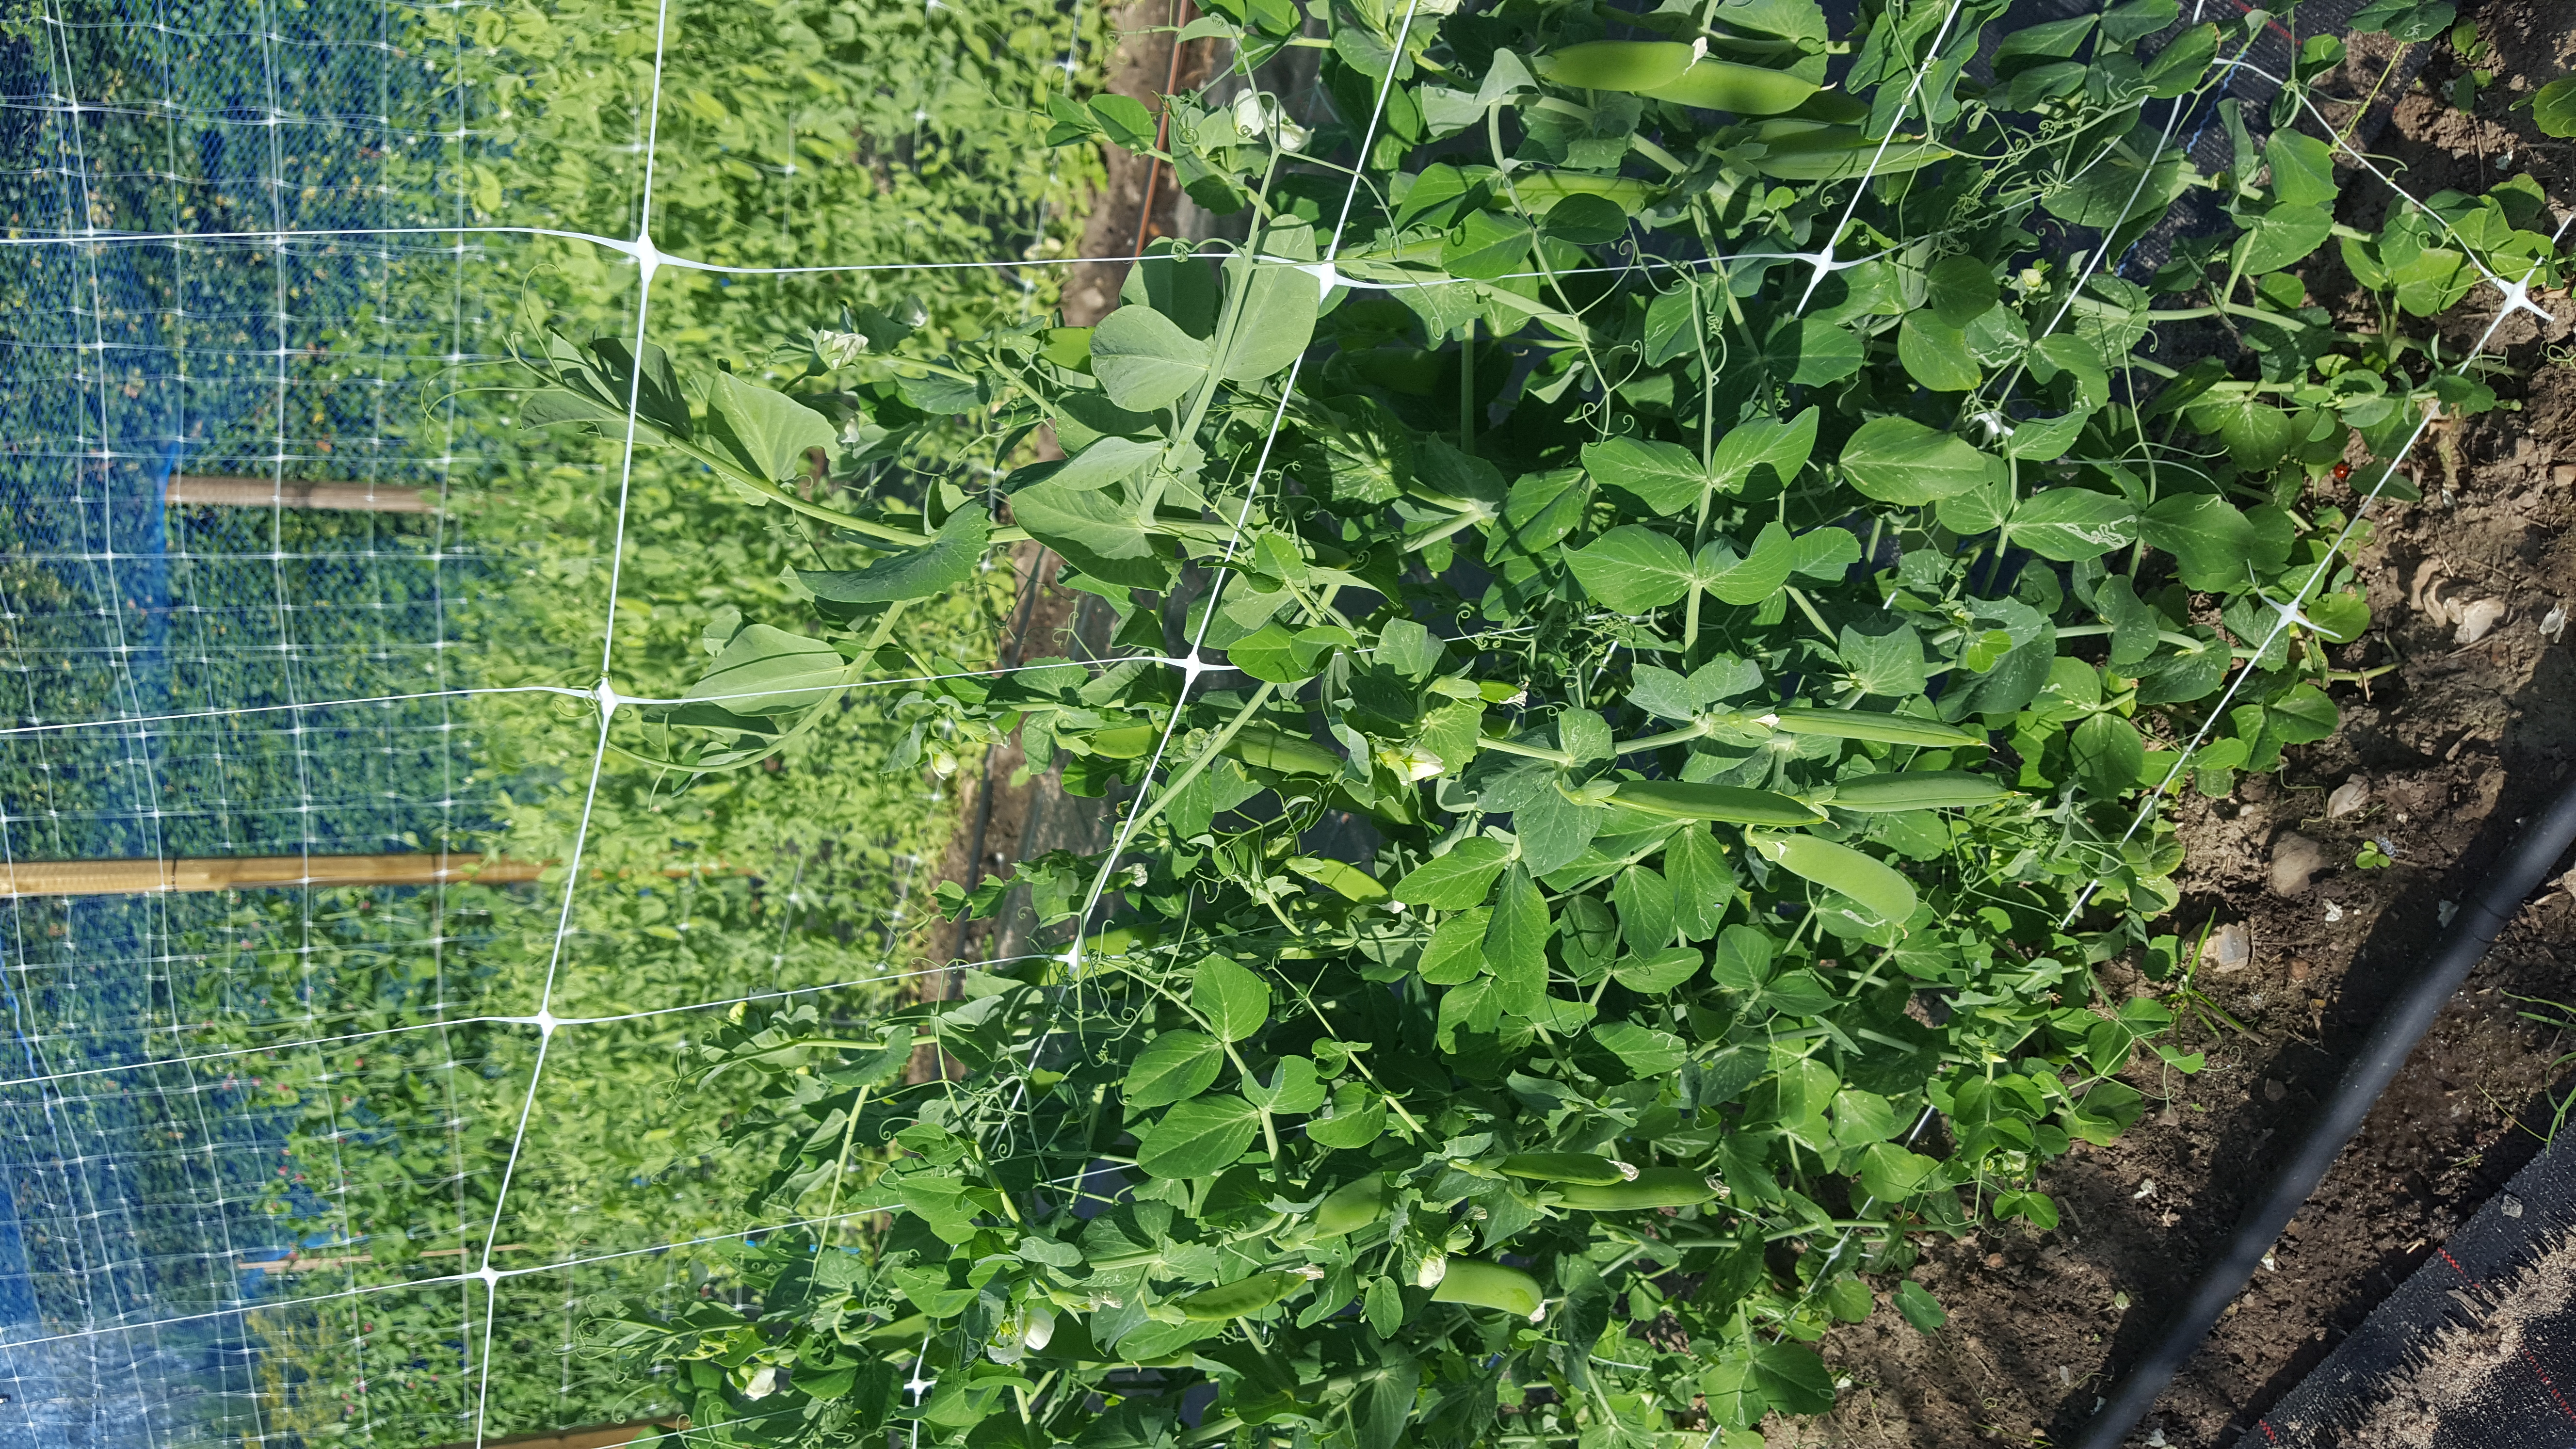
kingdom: Plantae
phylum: Tracheophyta
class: Magnoliopsida
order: Fabales
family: Fabaceae
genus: Lathyrus
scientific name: Lathyrus oleraceus
